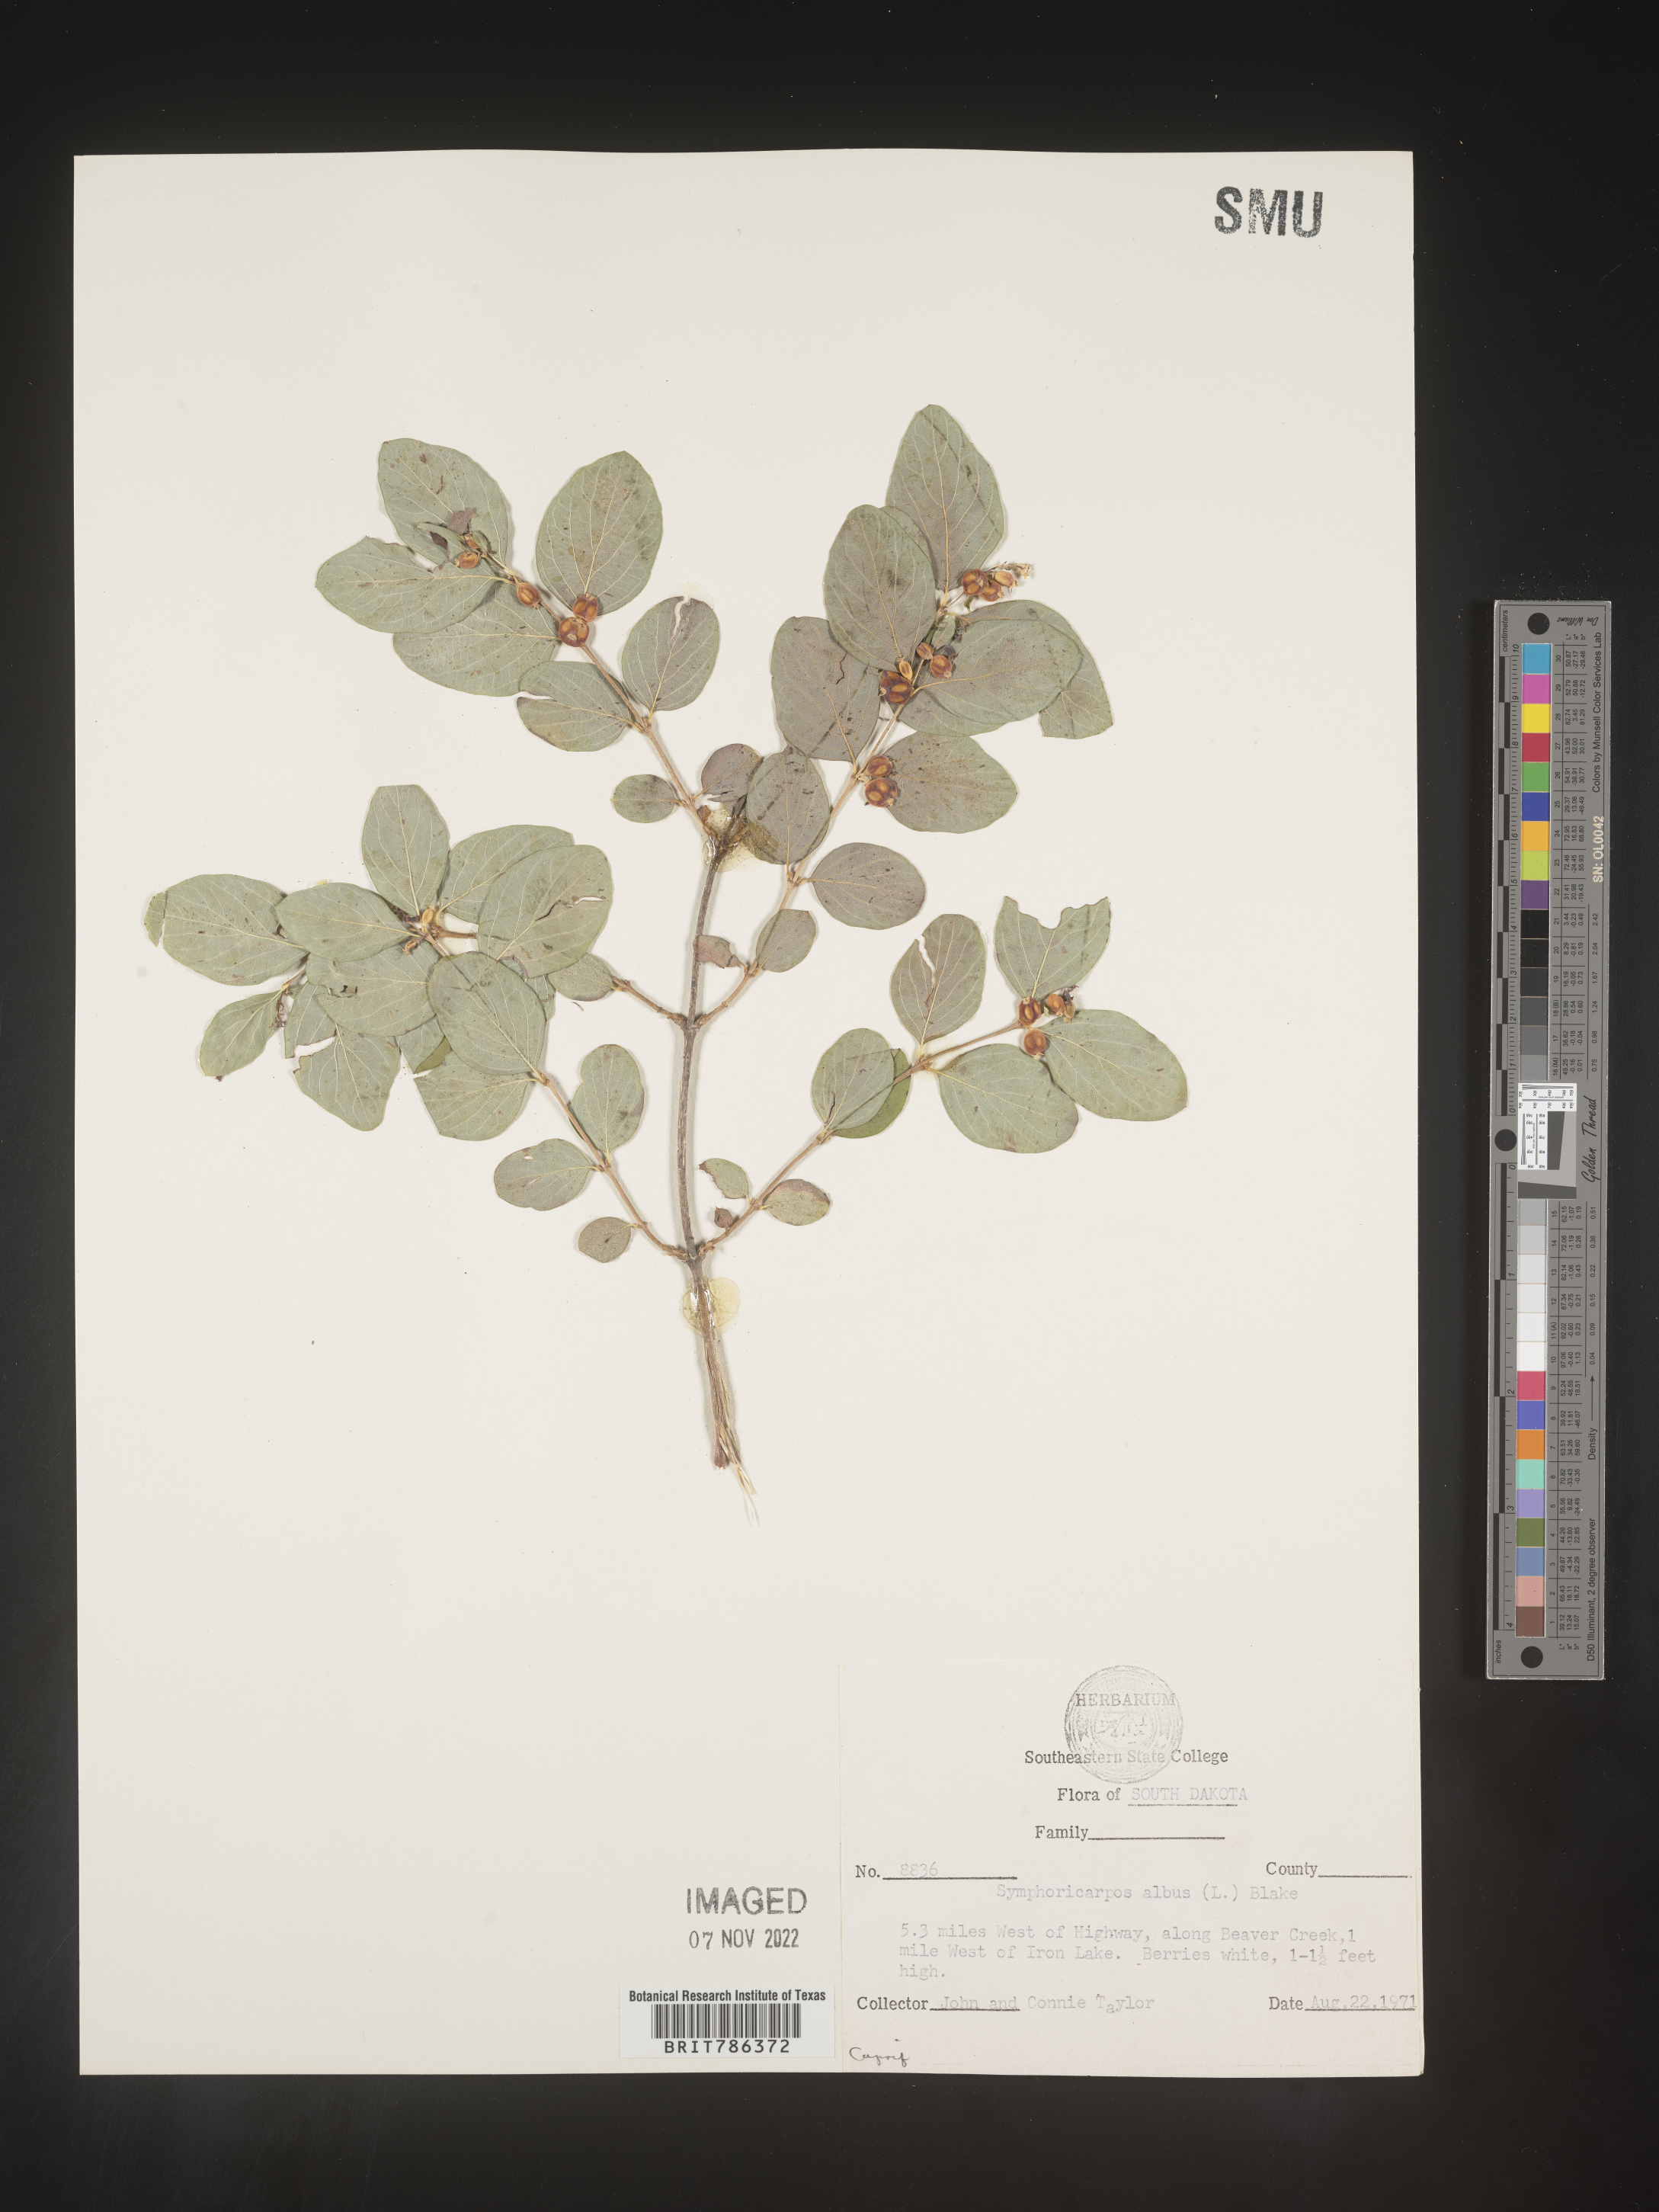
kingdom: Plantae
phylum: Tracheophyta
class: Magnoliopsida
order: Dipsacales
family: Caprifoliaceae
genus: Symphoricarpos
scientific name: Symphoricarpos albus
